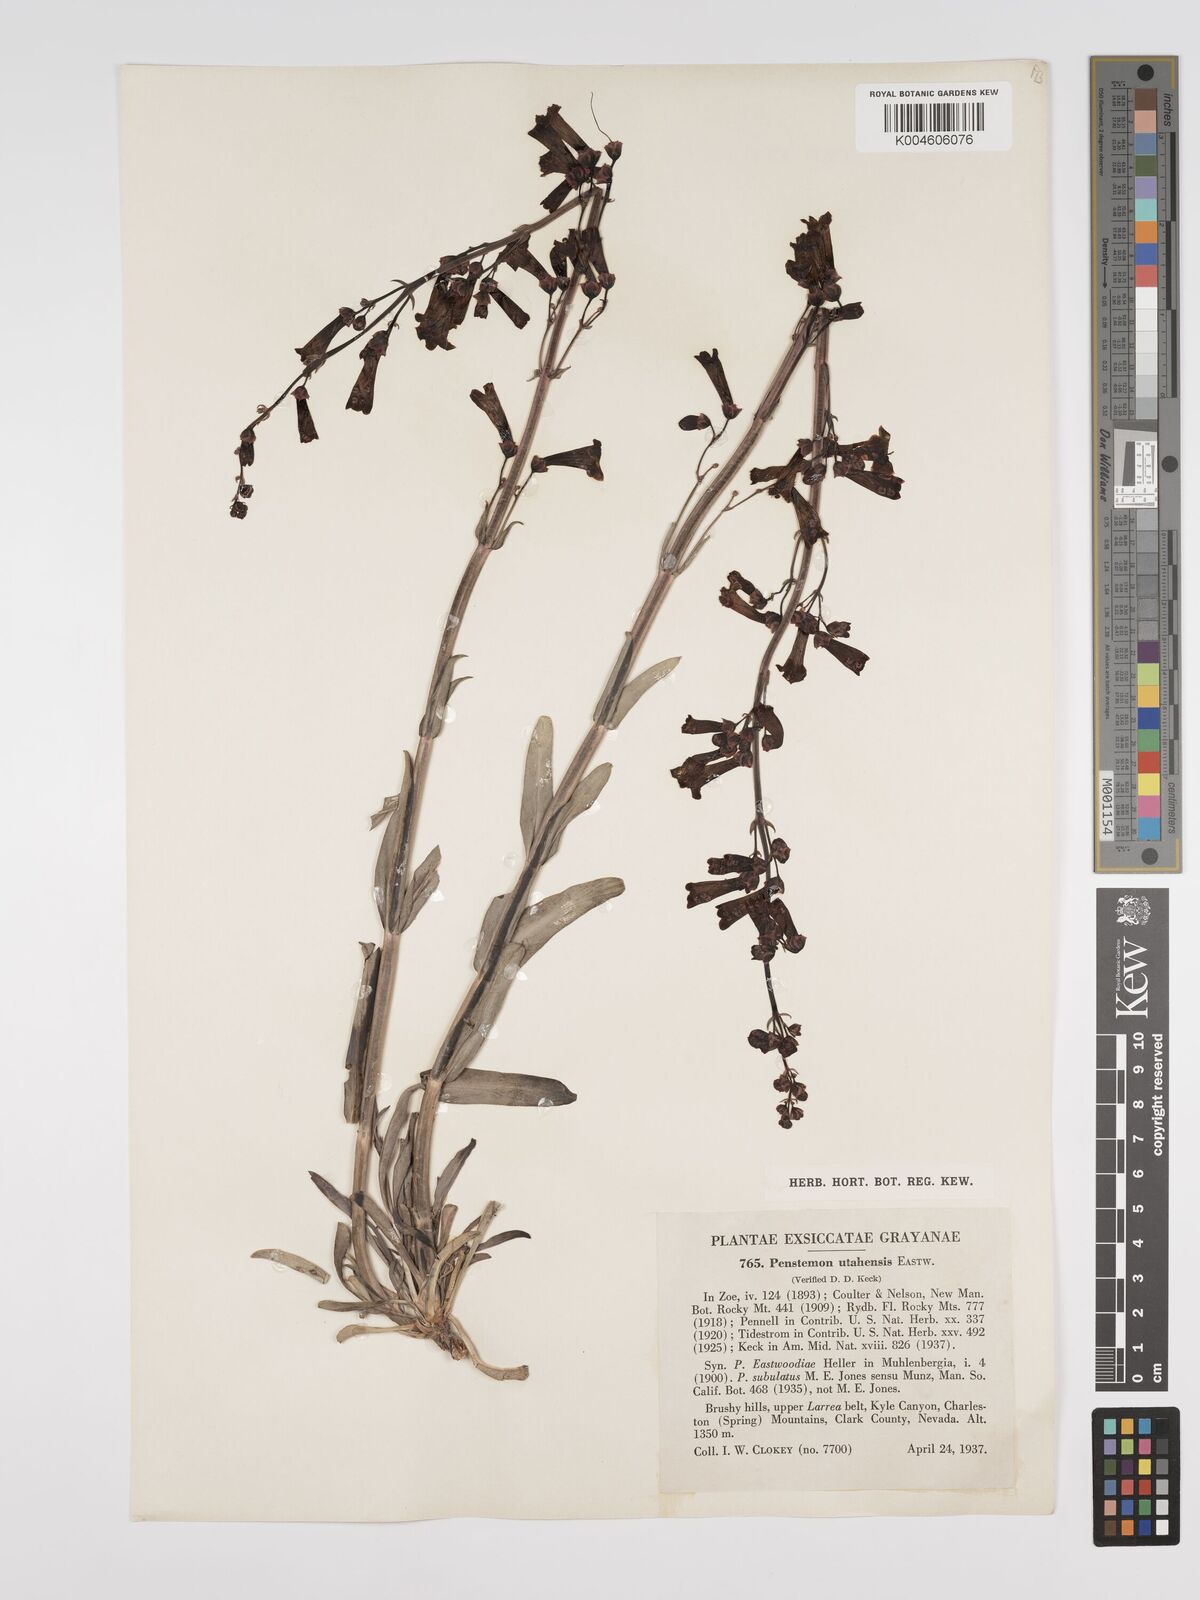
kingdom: Plantae
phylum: Tracheophyta
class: Magnoliopsida
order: Lamiales
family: Plantaginaceae
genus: Penstemon
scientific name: Penstemon
